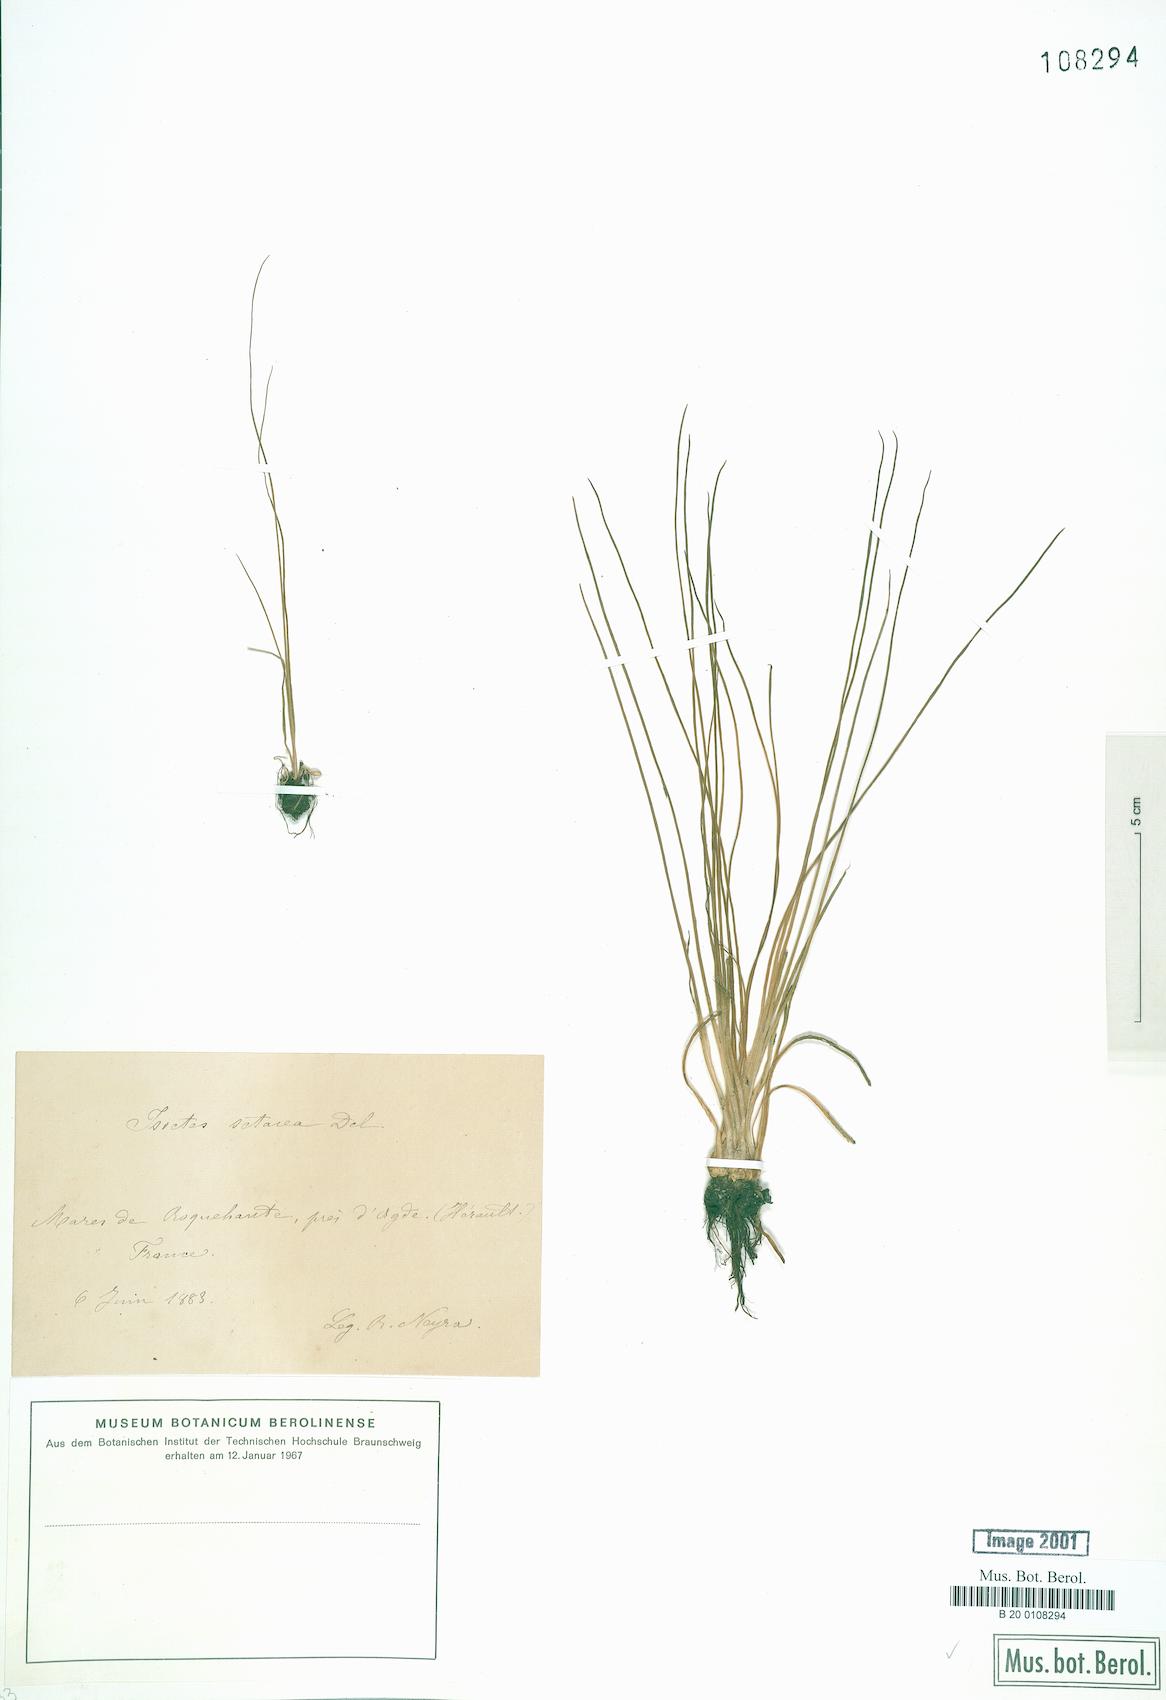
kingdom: Plantae
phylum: Tracheophyta
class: Lycopodiopsida
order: Isoetales
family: Isoetaceae
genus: Isoetes
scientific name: Isoetes lacustris
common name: Common quillwort
